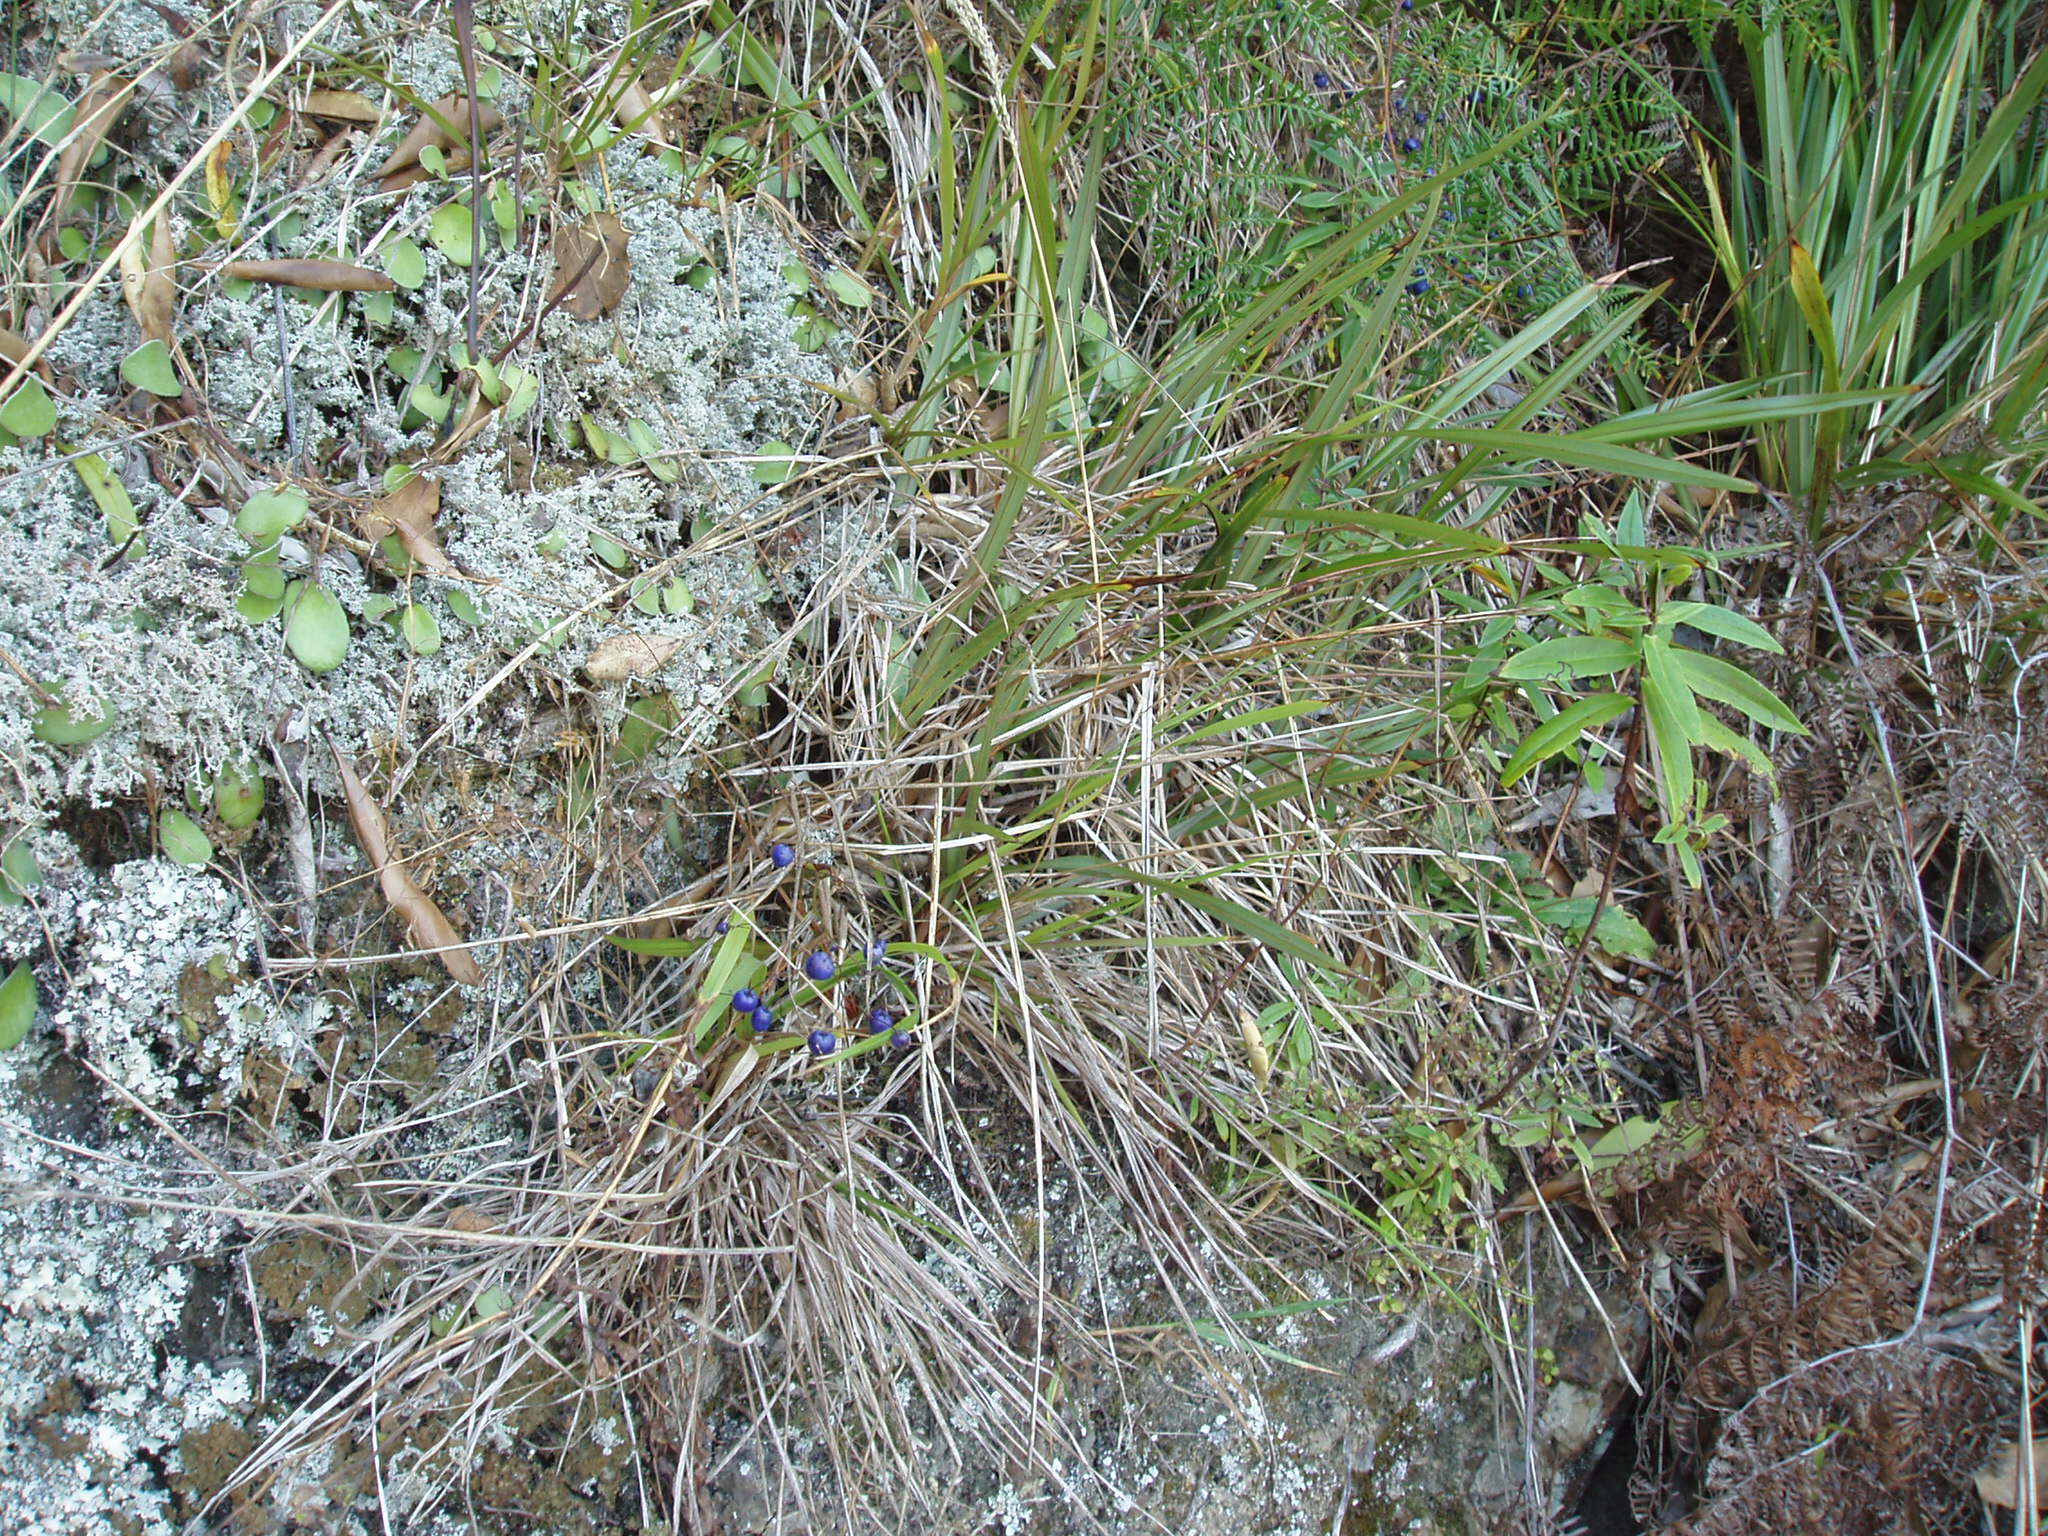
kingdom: Plantae
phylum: Tracheophyta
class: Liliopsida
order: Asparagales
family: Asphodelaceae
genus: Dianella
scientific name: Dianella nigra
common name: New zealand-blueberry
